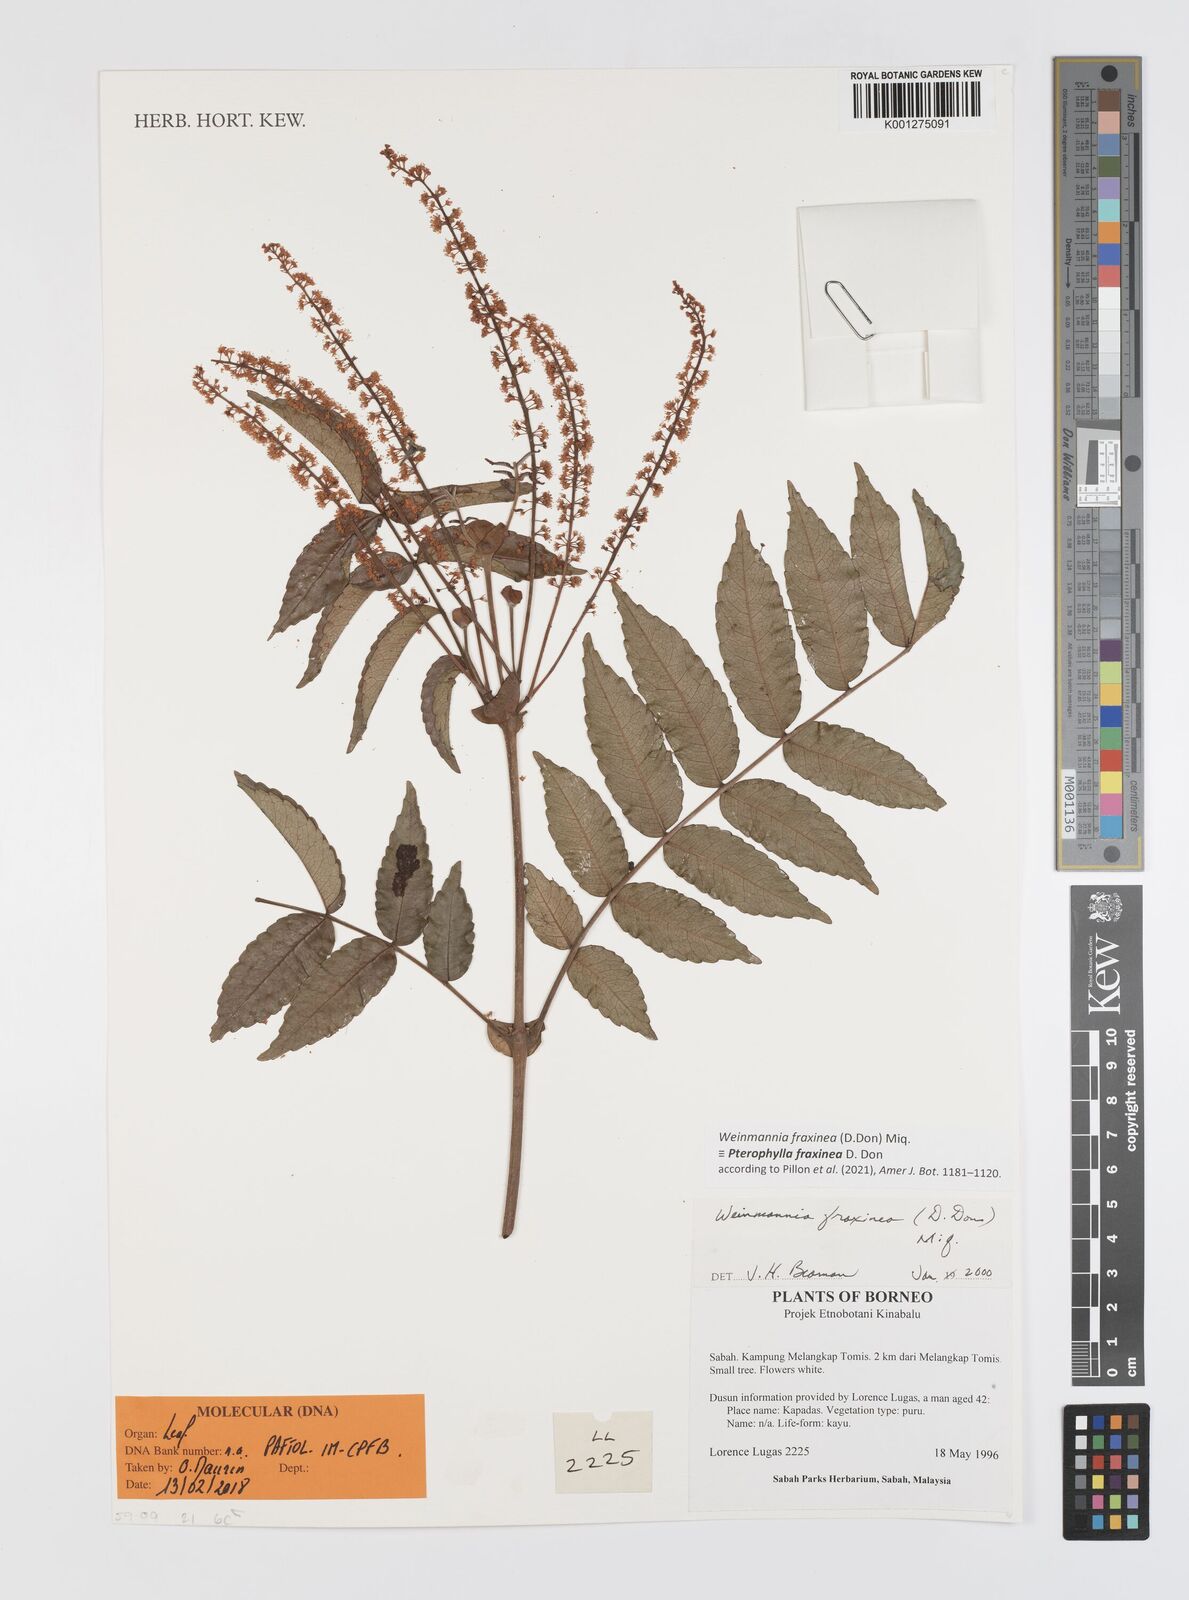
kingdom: Plantae
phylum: Tracheophyta
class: Magnoliopsida
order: Oxalidales
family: Cunoniaceae
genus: Weinmannia
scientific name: Weinmannia
